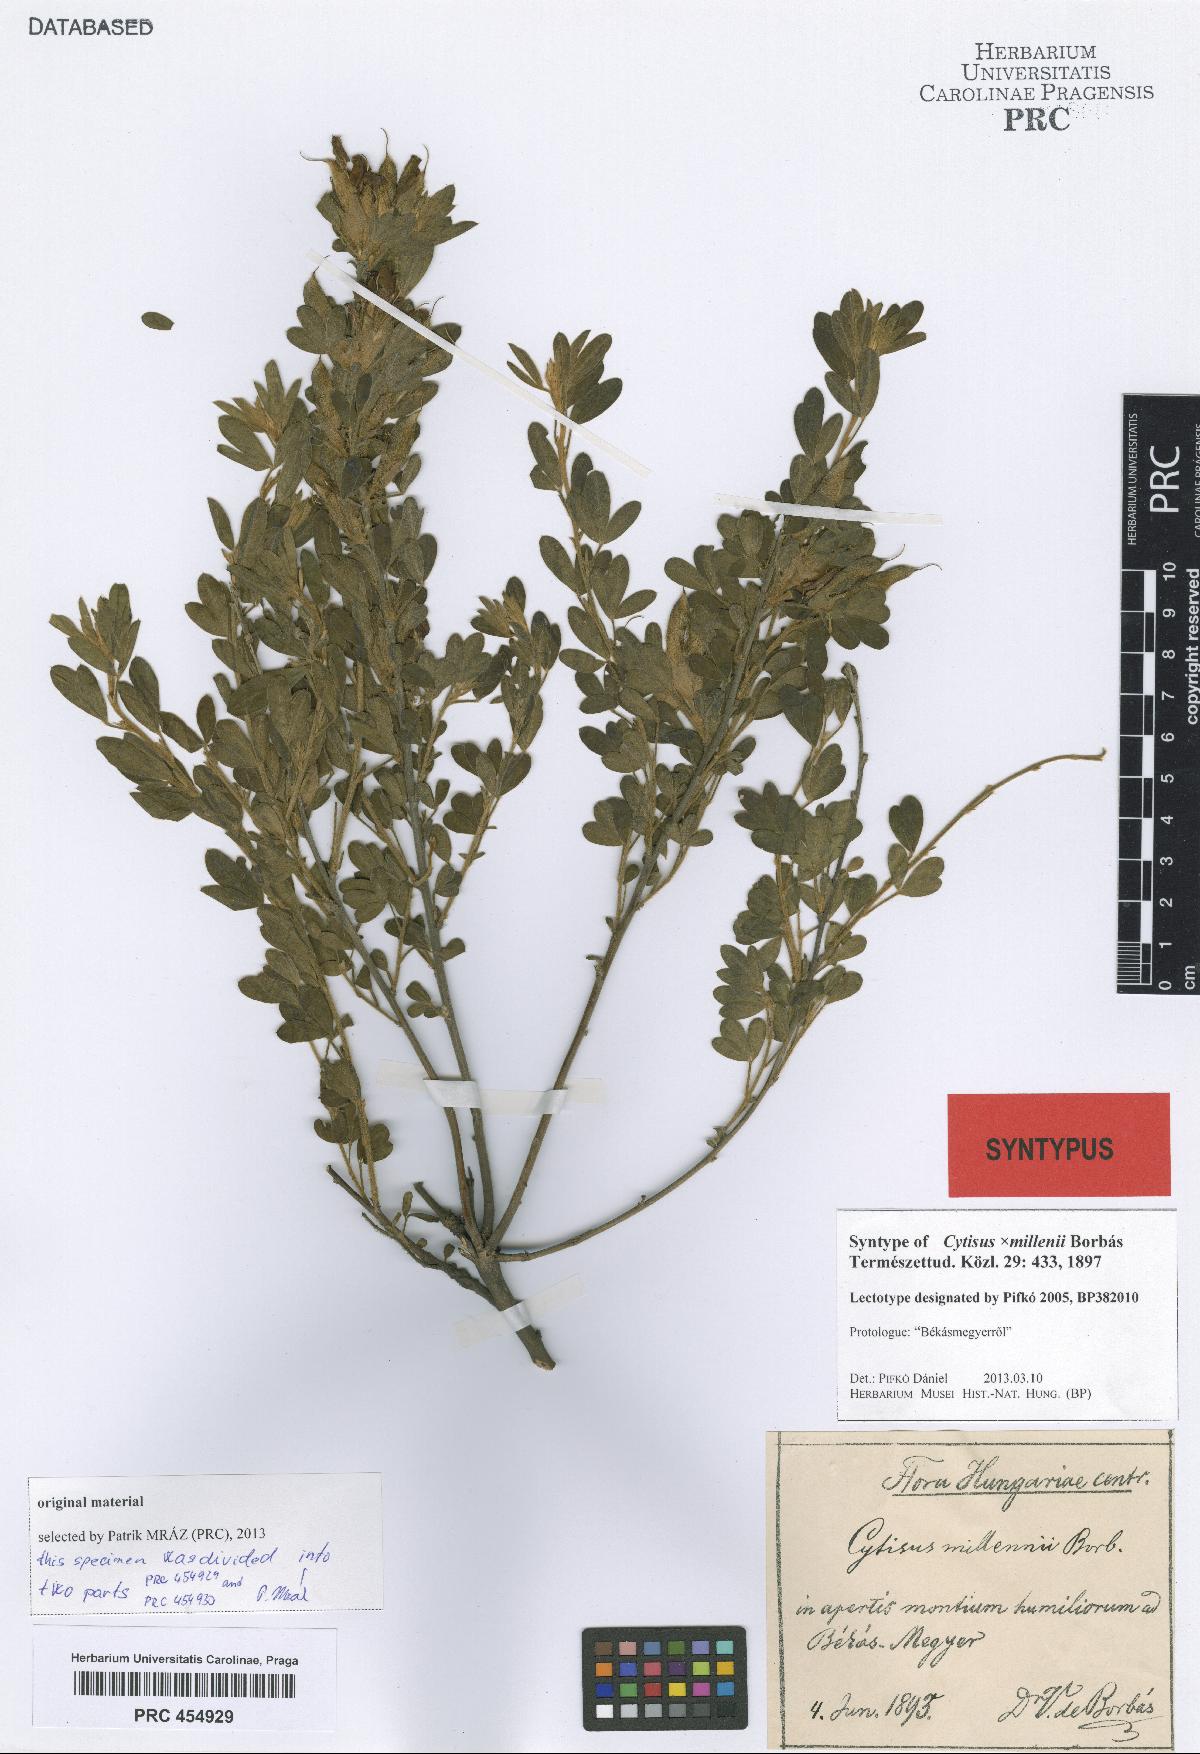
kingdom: Plantae
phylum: Tracheophyta
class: Magnoliopsida
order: Fabales
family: Fabaceae
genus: Cytisus
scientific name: Cytisus millenii
